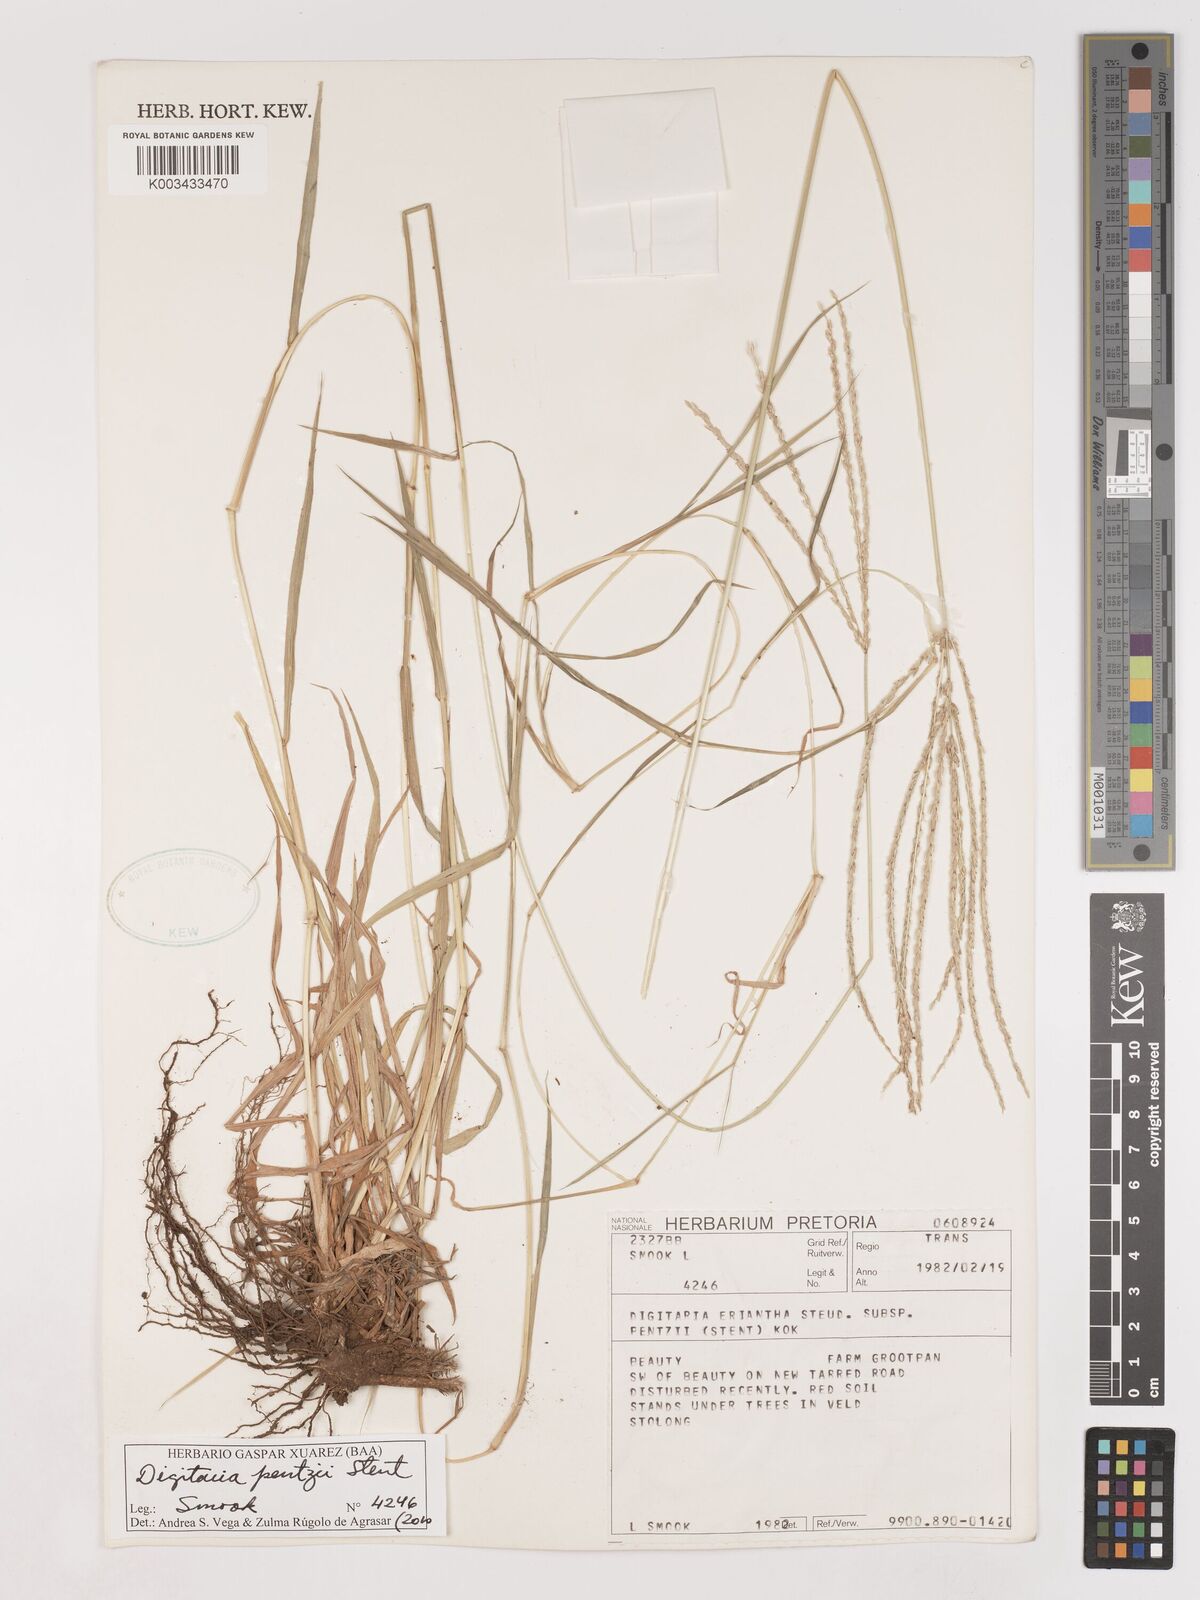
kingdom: Plantae
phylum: Tracheophyta
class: Liliopsida
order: Poales
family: Poaceae
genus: Digitaria
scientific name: Digitaria eriantha
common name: Digitgrass
